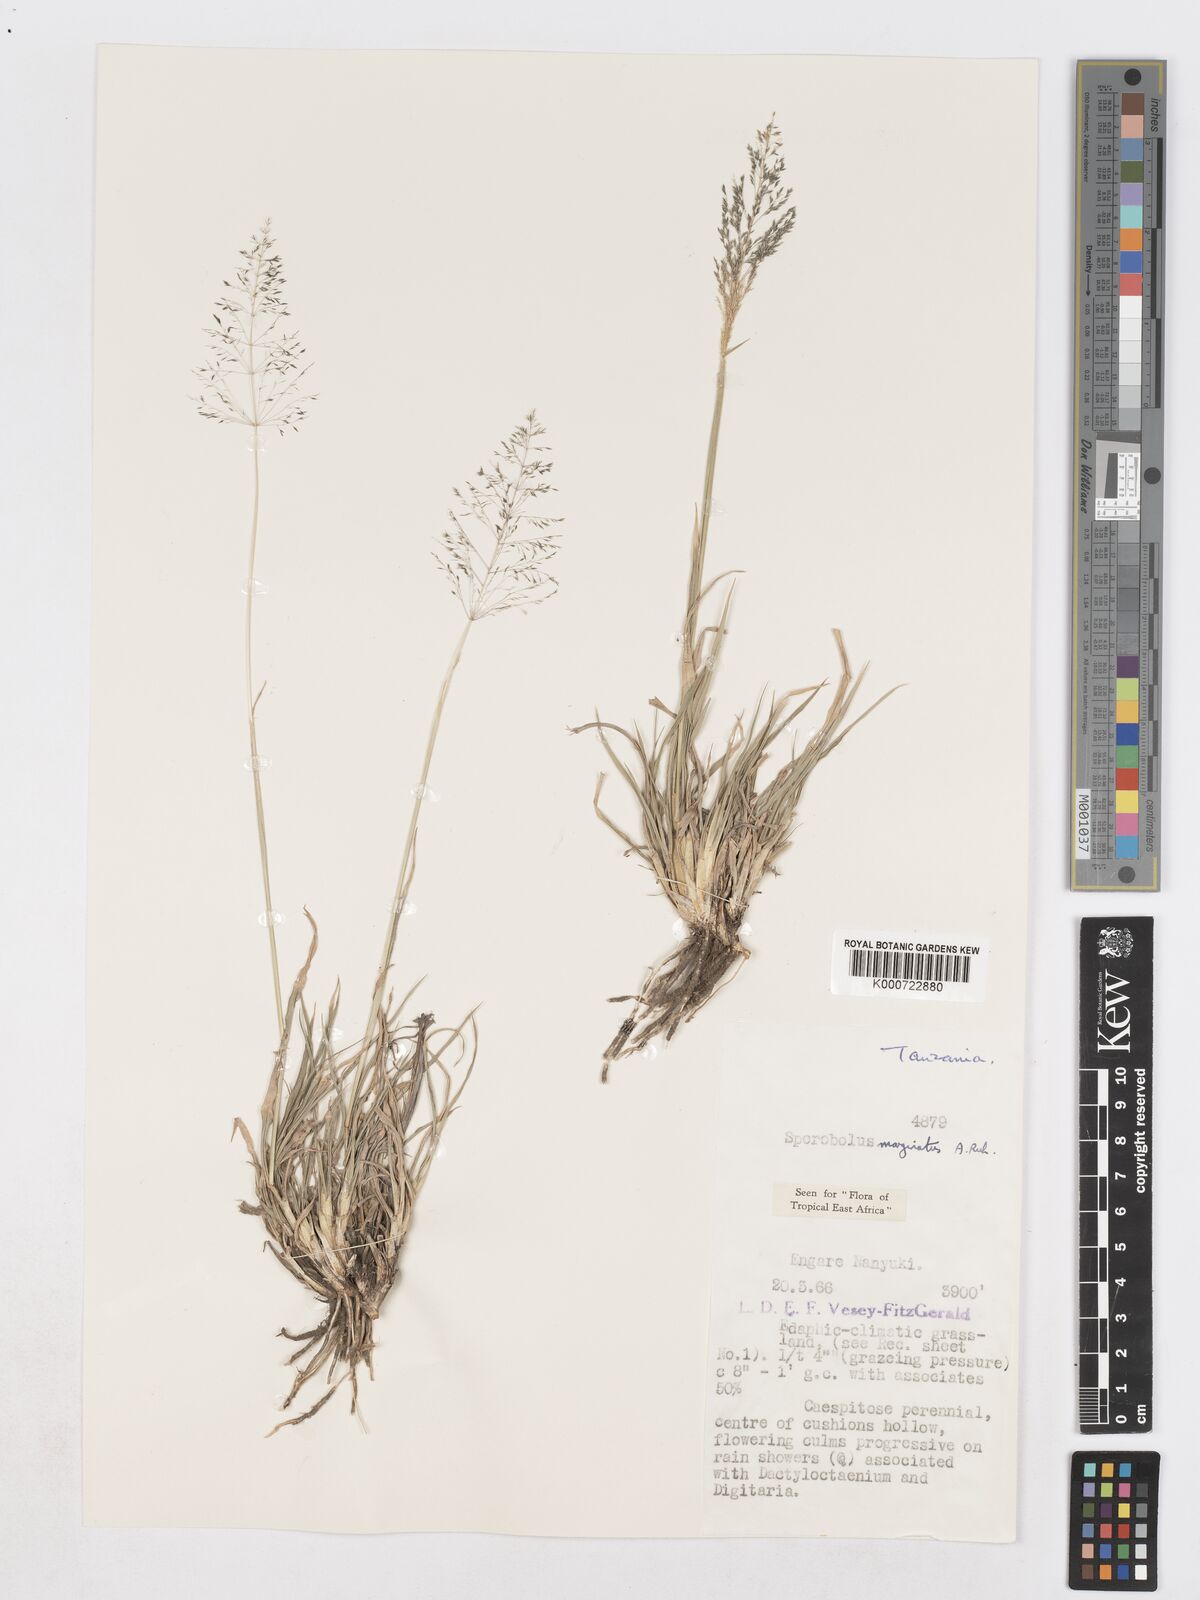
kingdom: Plantae
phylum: Tracheophyta
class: Liliopsida
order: Poales
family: Poaceae
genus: Sporobolus
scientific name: Sporobolus ioclados
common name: Pan dropseed
